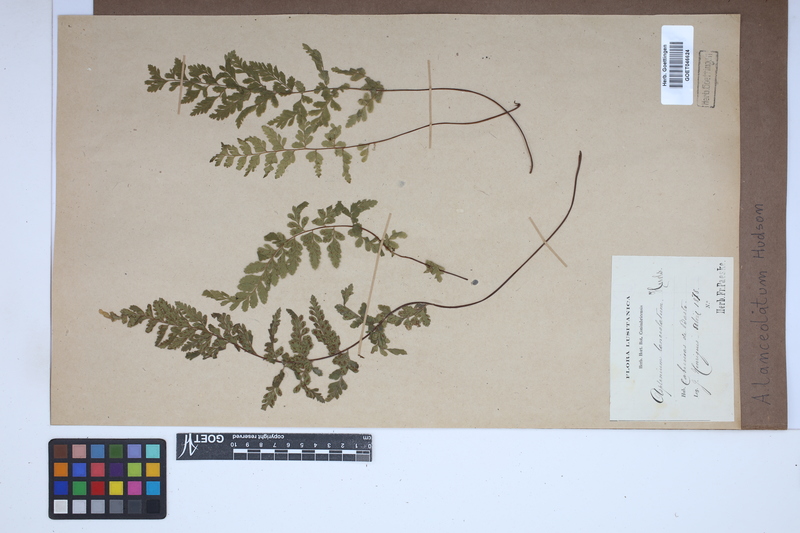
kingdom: Plantae
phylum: Tracheophyta
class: Polypodiopsida
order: Polypodiales
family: Aspleniaceae
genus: Asplenium
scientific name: Asplenium obovatum
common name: Lanceolate spleenwort
